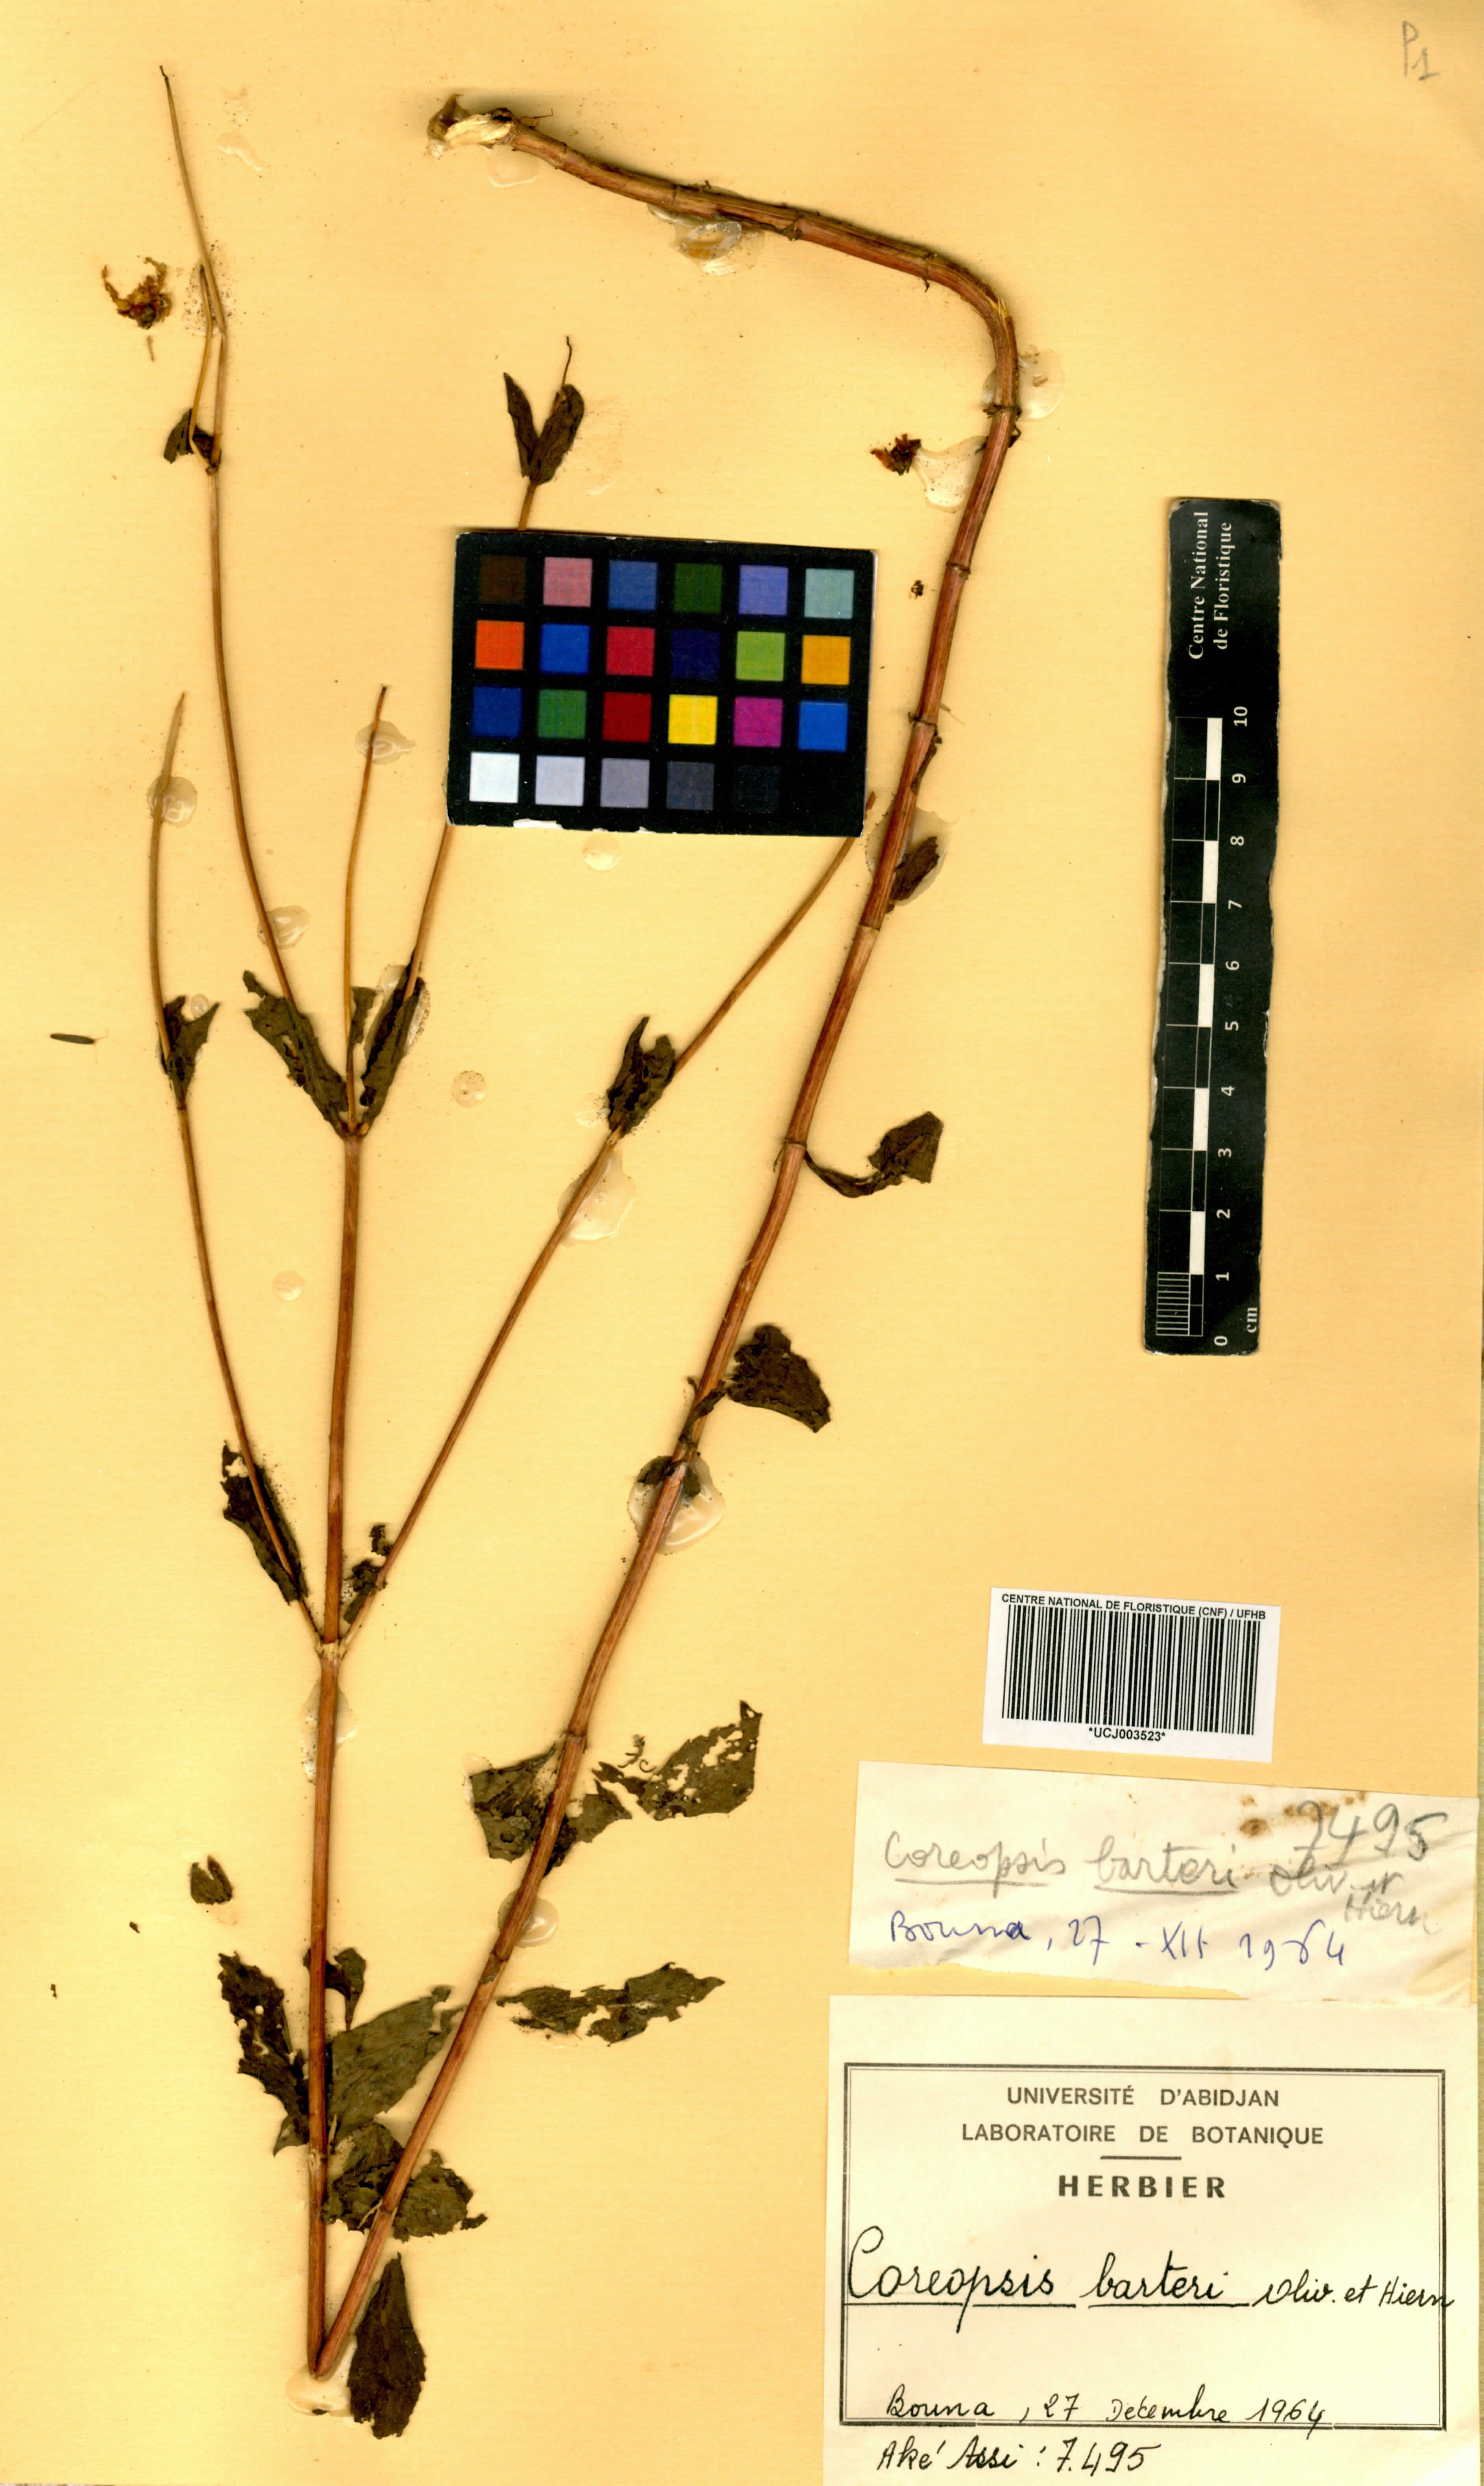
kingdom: Plantae
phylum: Tracheophyta
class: Magnoliopsida
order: Asterales
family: Asteraceae
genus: Bidens
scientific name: Bidens barteri
